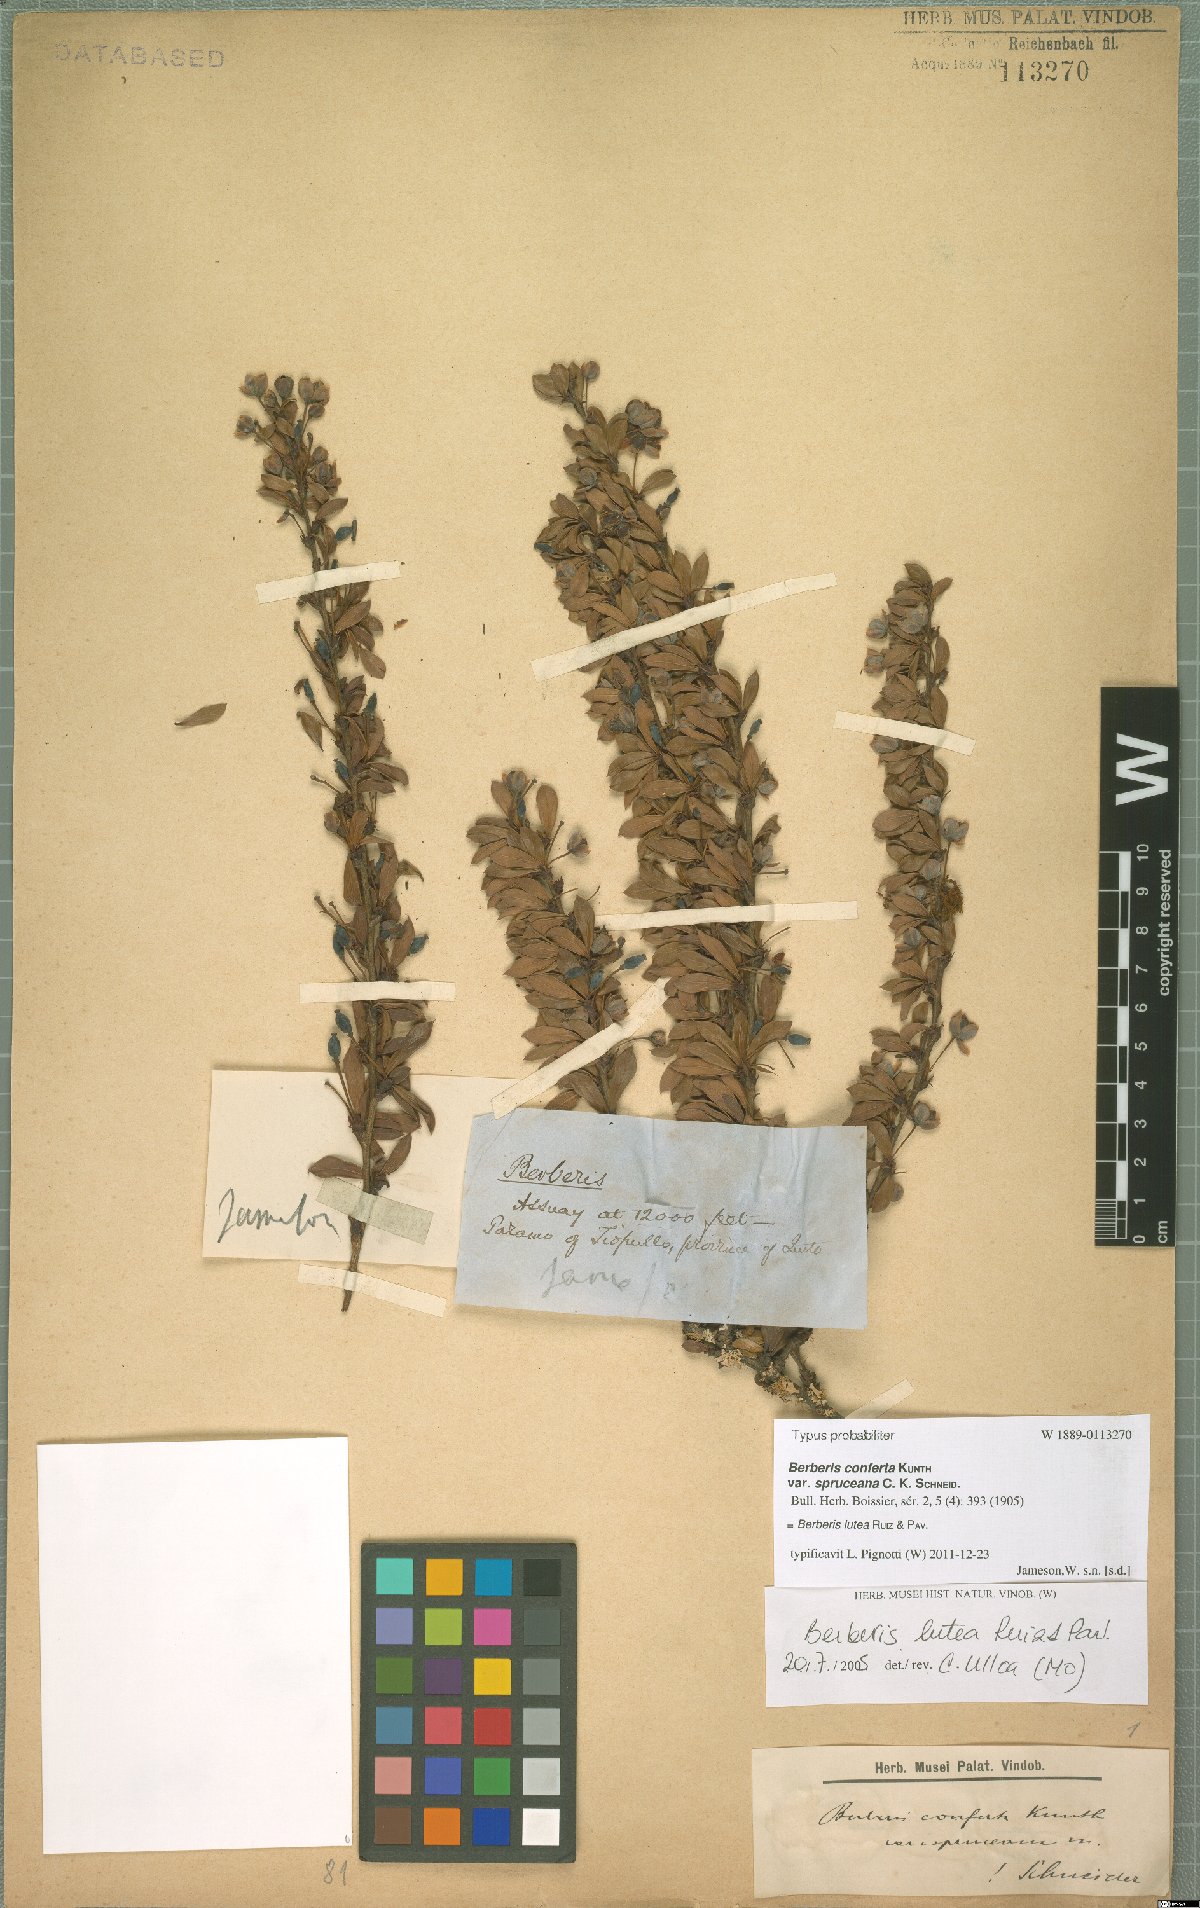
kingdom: Plantae
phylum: Tracheophyta
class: Magnoliopsida
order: Ranunculales
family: Berberidaceae
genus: Berberis
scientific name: Berberis lutea
